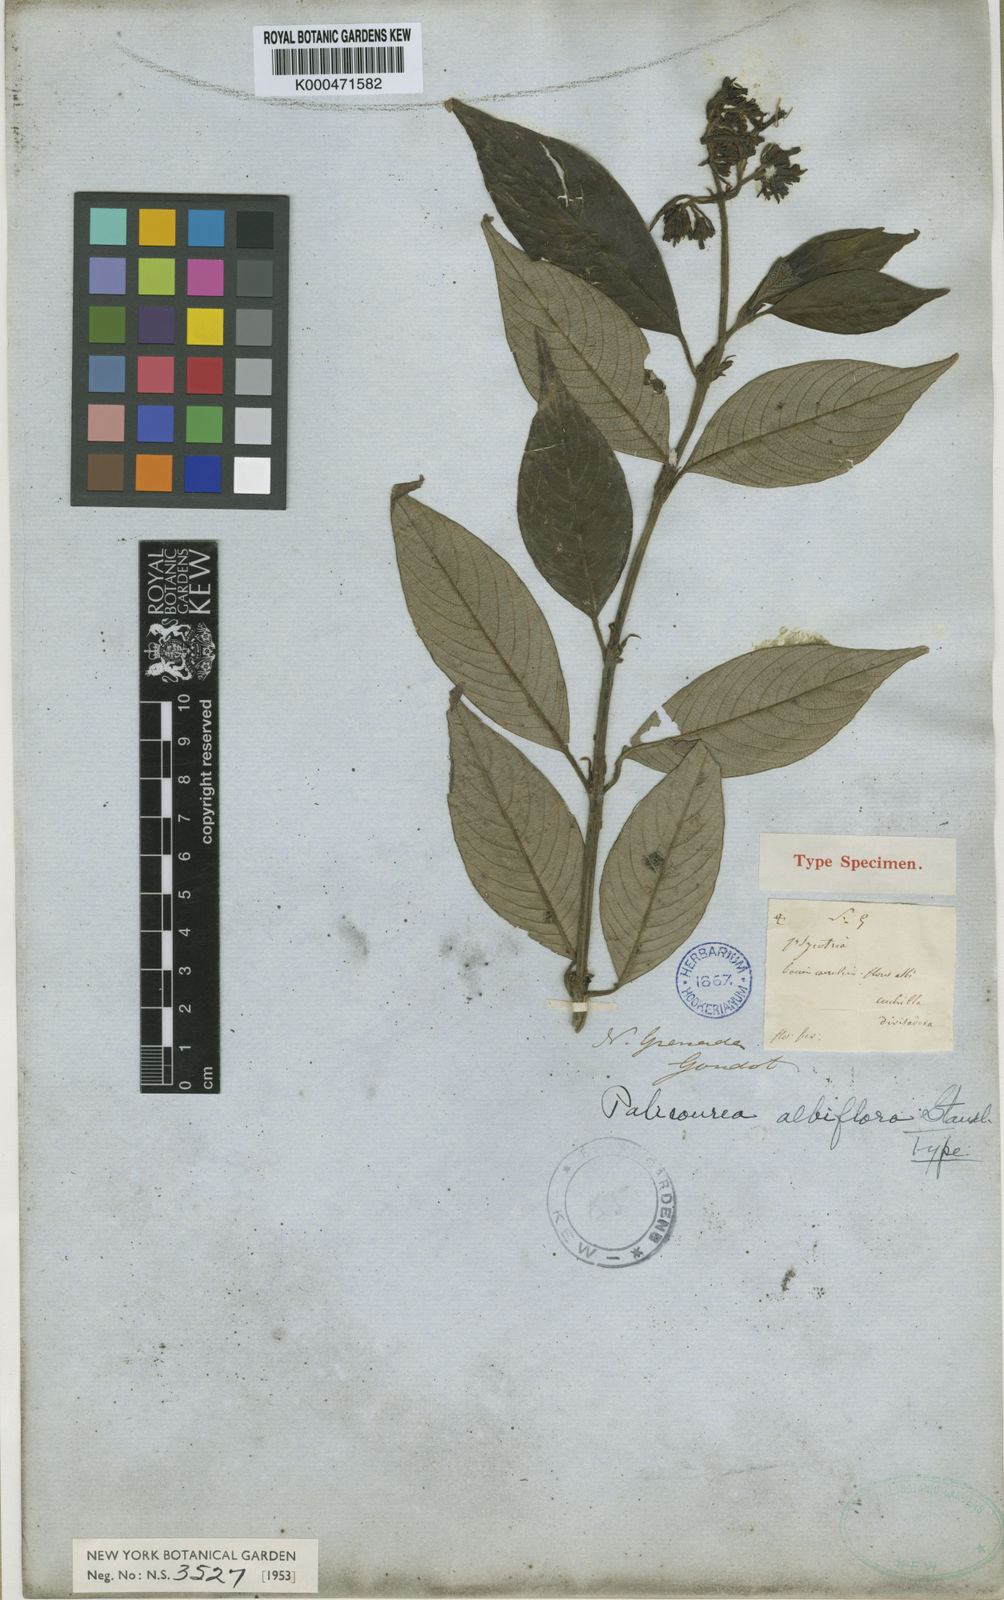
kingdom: Plantae
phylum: Tracheophyta
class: Magnoliopsida
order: Gentianales
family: Rubiaceae
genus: Palicourea
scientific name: Palicourea albiflora
